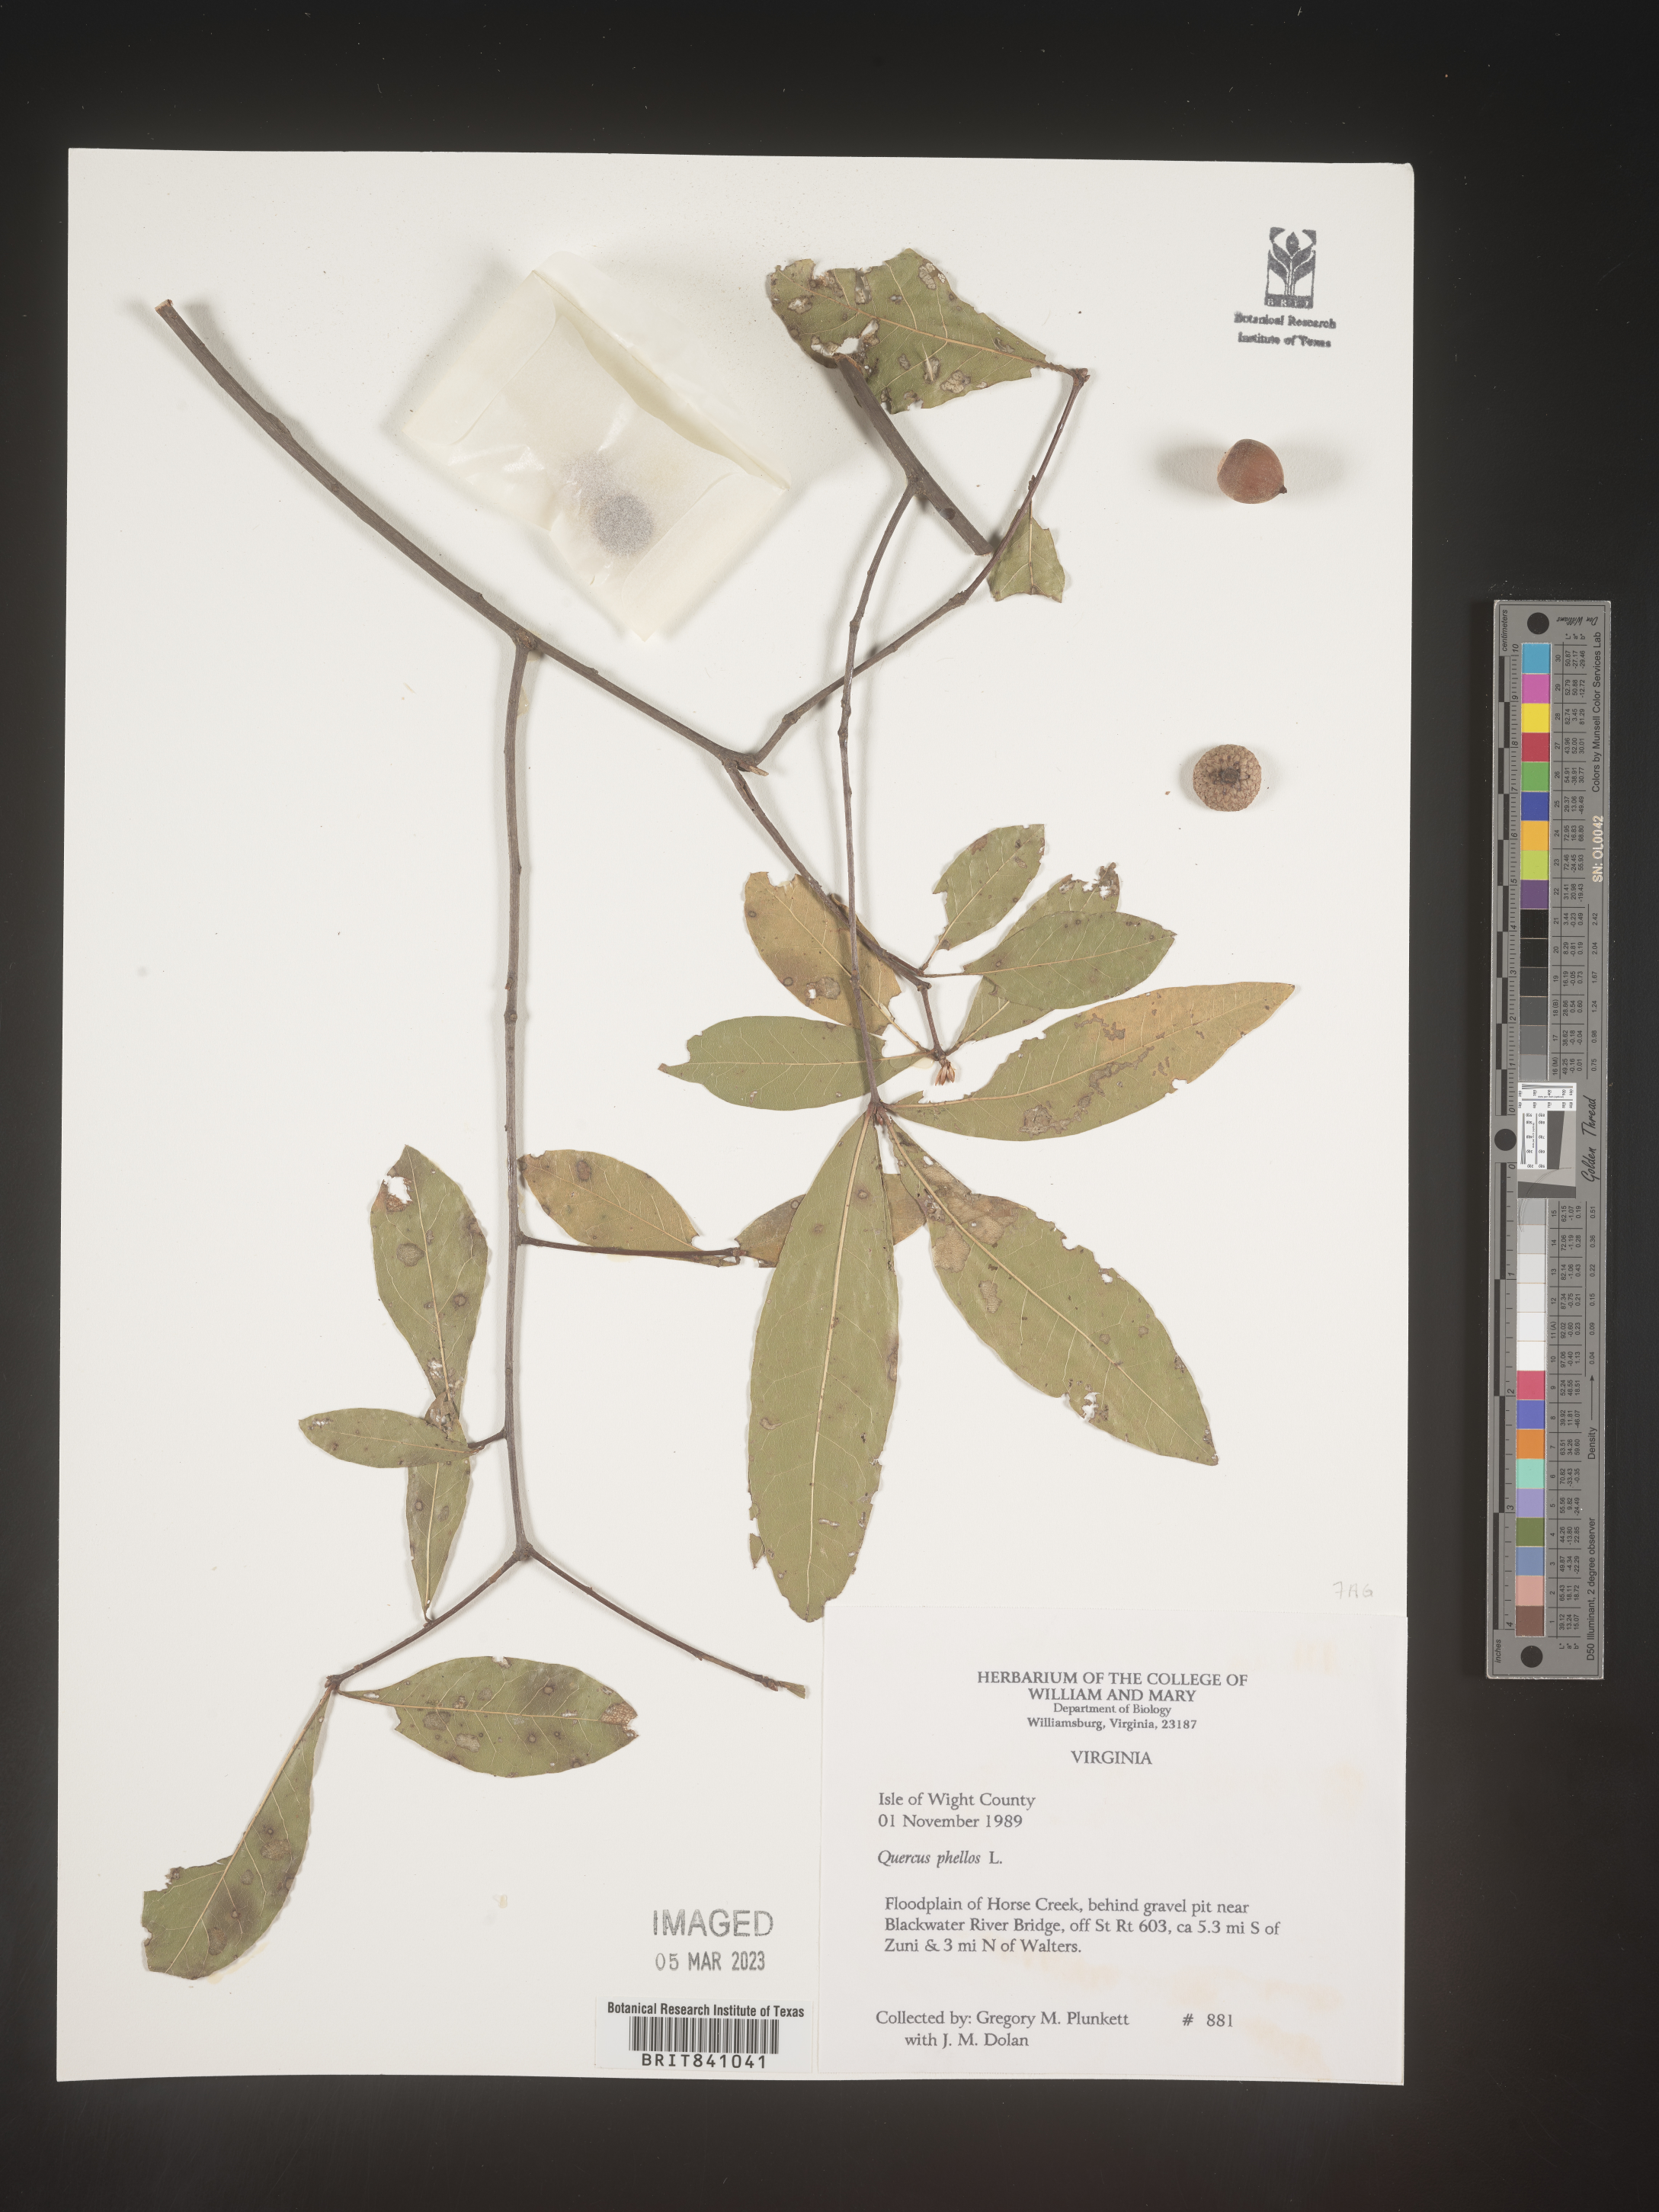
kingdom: Plantae
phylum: Tracheophyta
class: Magnoliopsida
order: Fagales
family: Fagaceae
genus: Quercus
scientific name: Quercus phellos
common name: Willow oak
